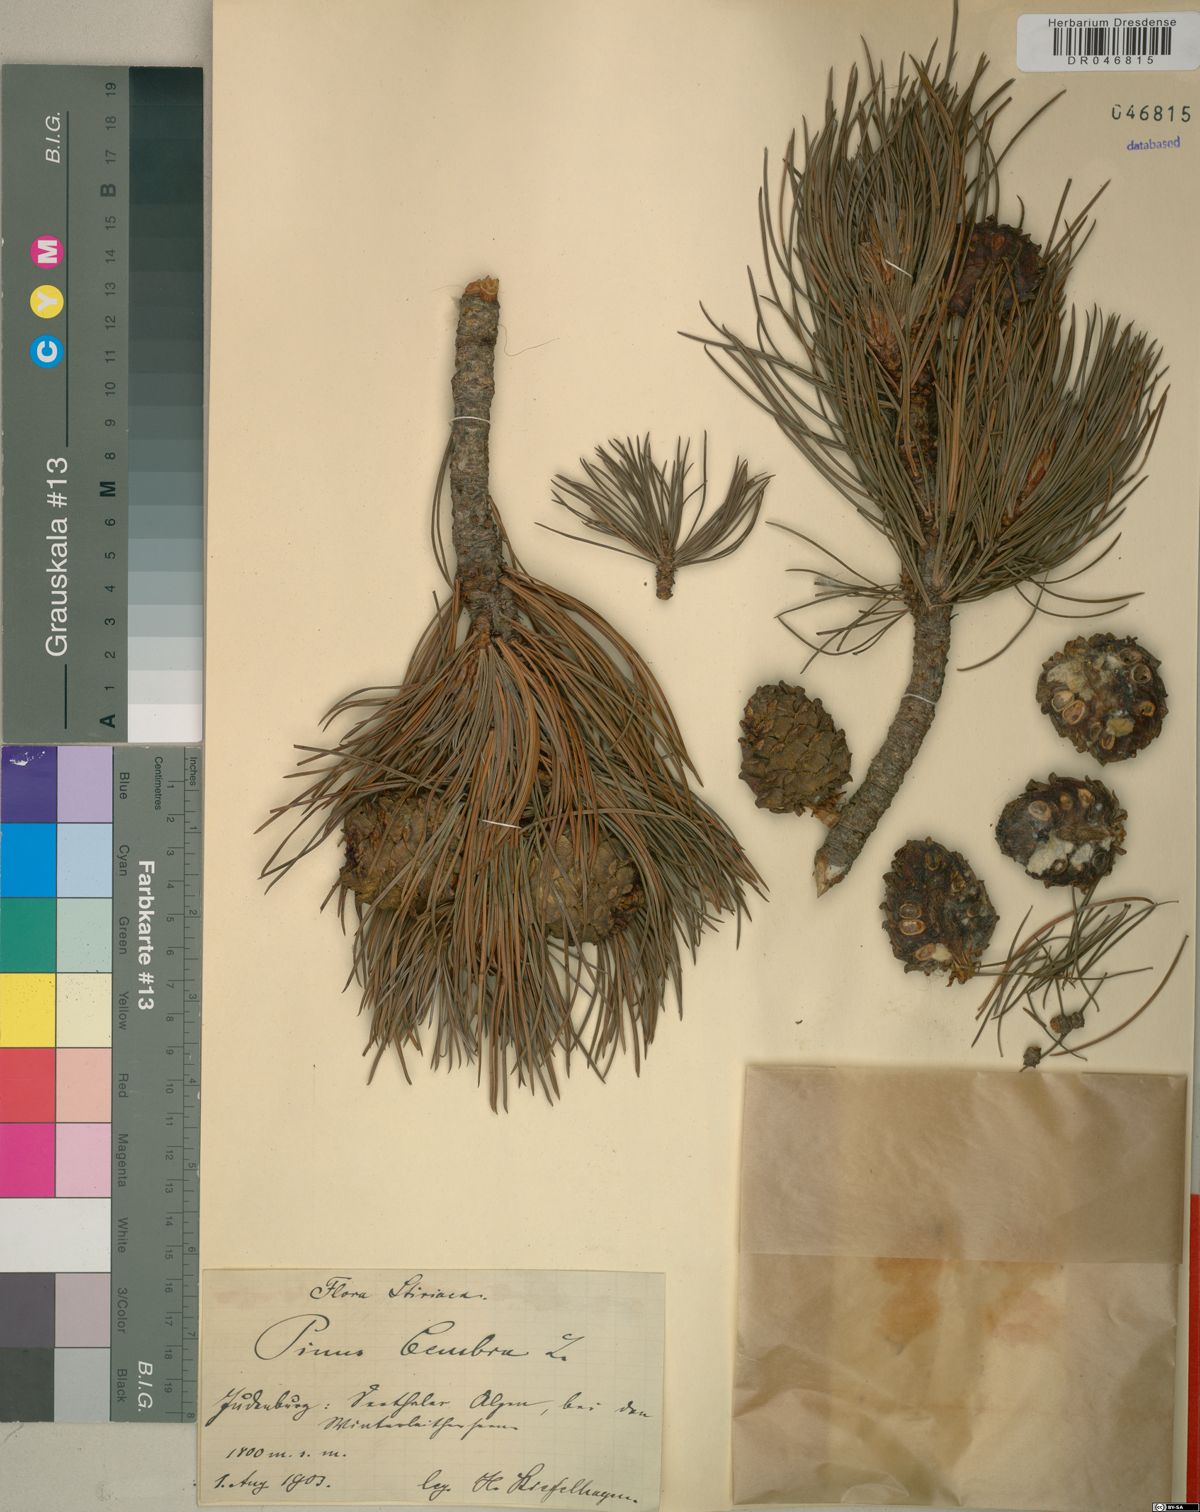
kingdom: Plantae
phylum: Tracheophyta
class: Pinopsida
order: Pinales
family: Pinaceae
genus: Pinus
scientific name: Pinus cembra
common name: Arolla pine
